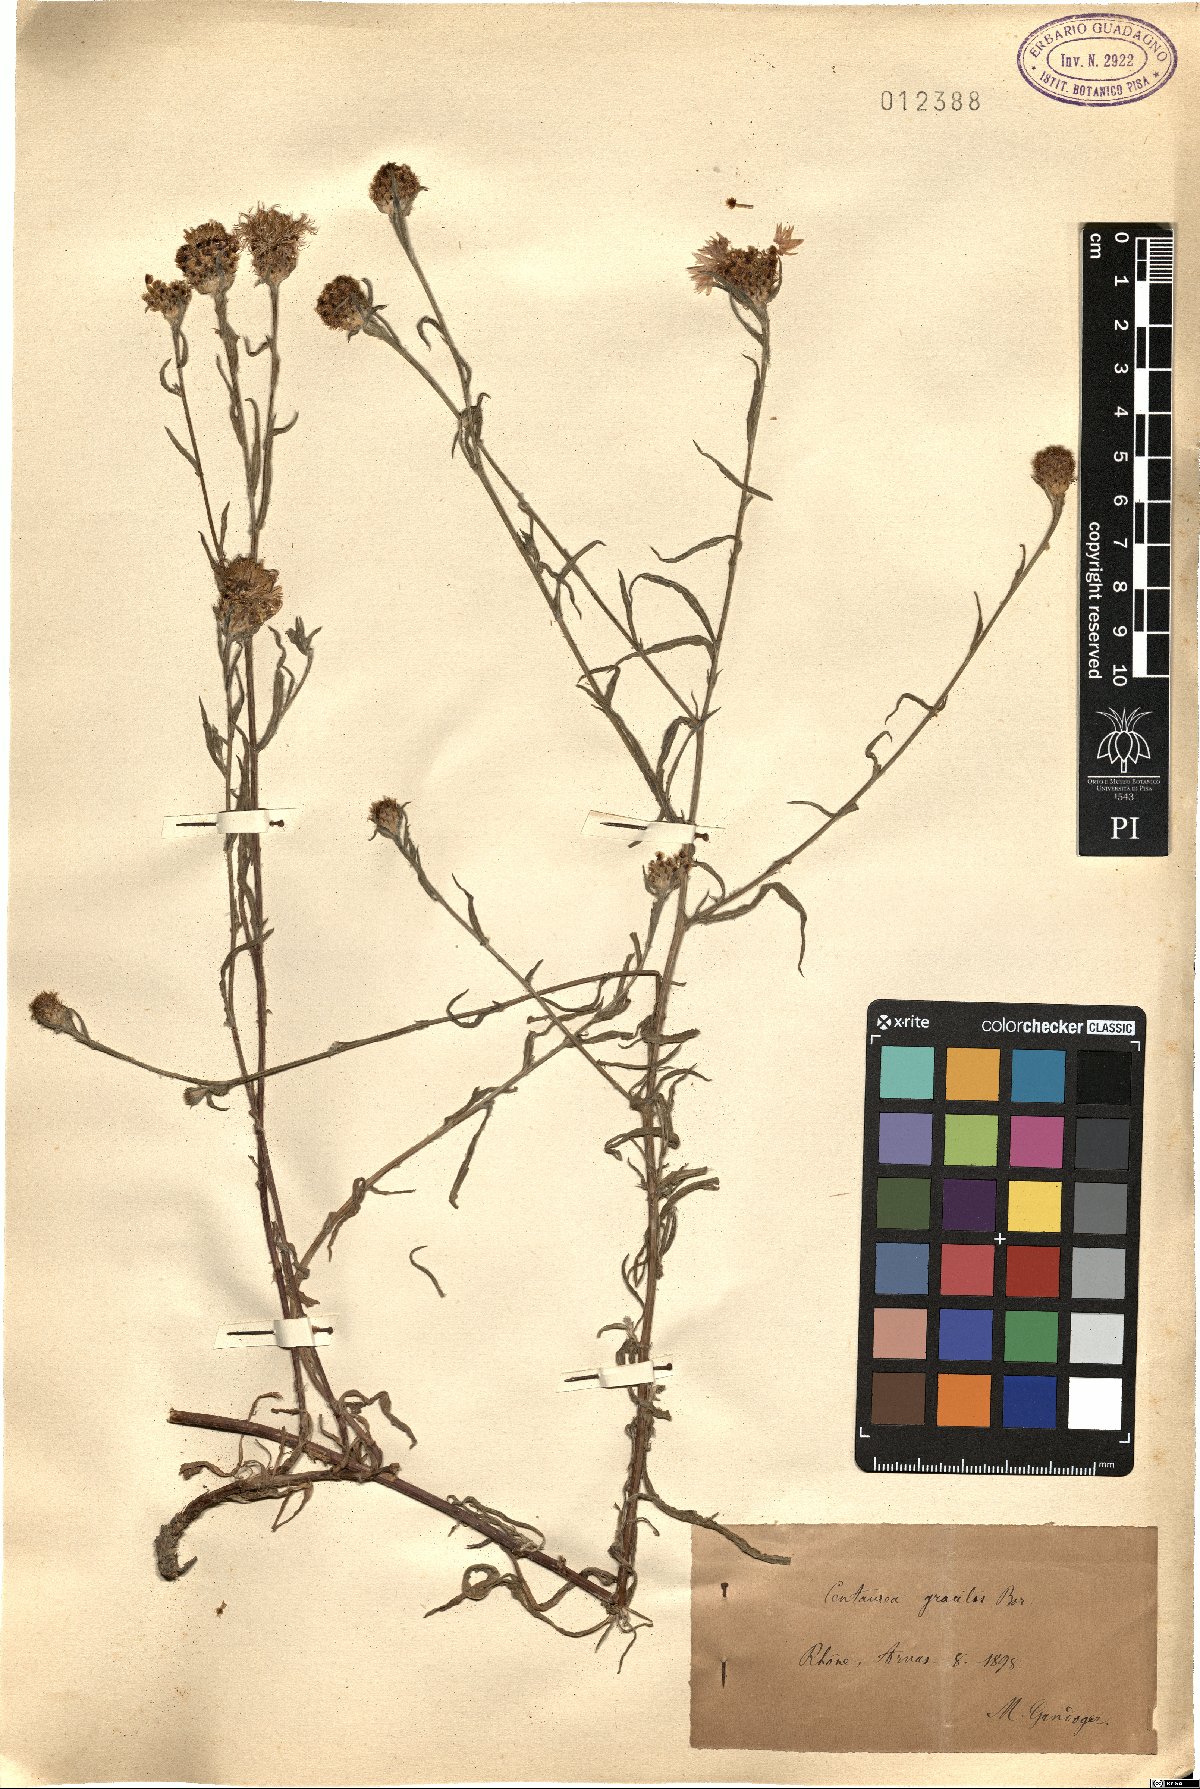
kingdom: Plantae
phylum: Tracheophyta
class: Magnoliopsida
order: Asterales
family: Asteraceae
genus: Centaurea
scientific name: Centaurea jacea
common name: Brown knapweed
